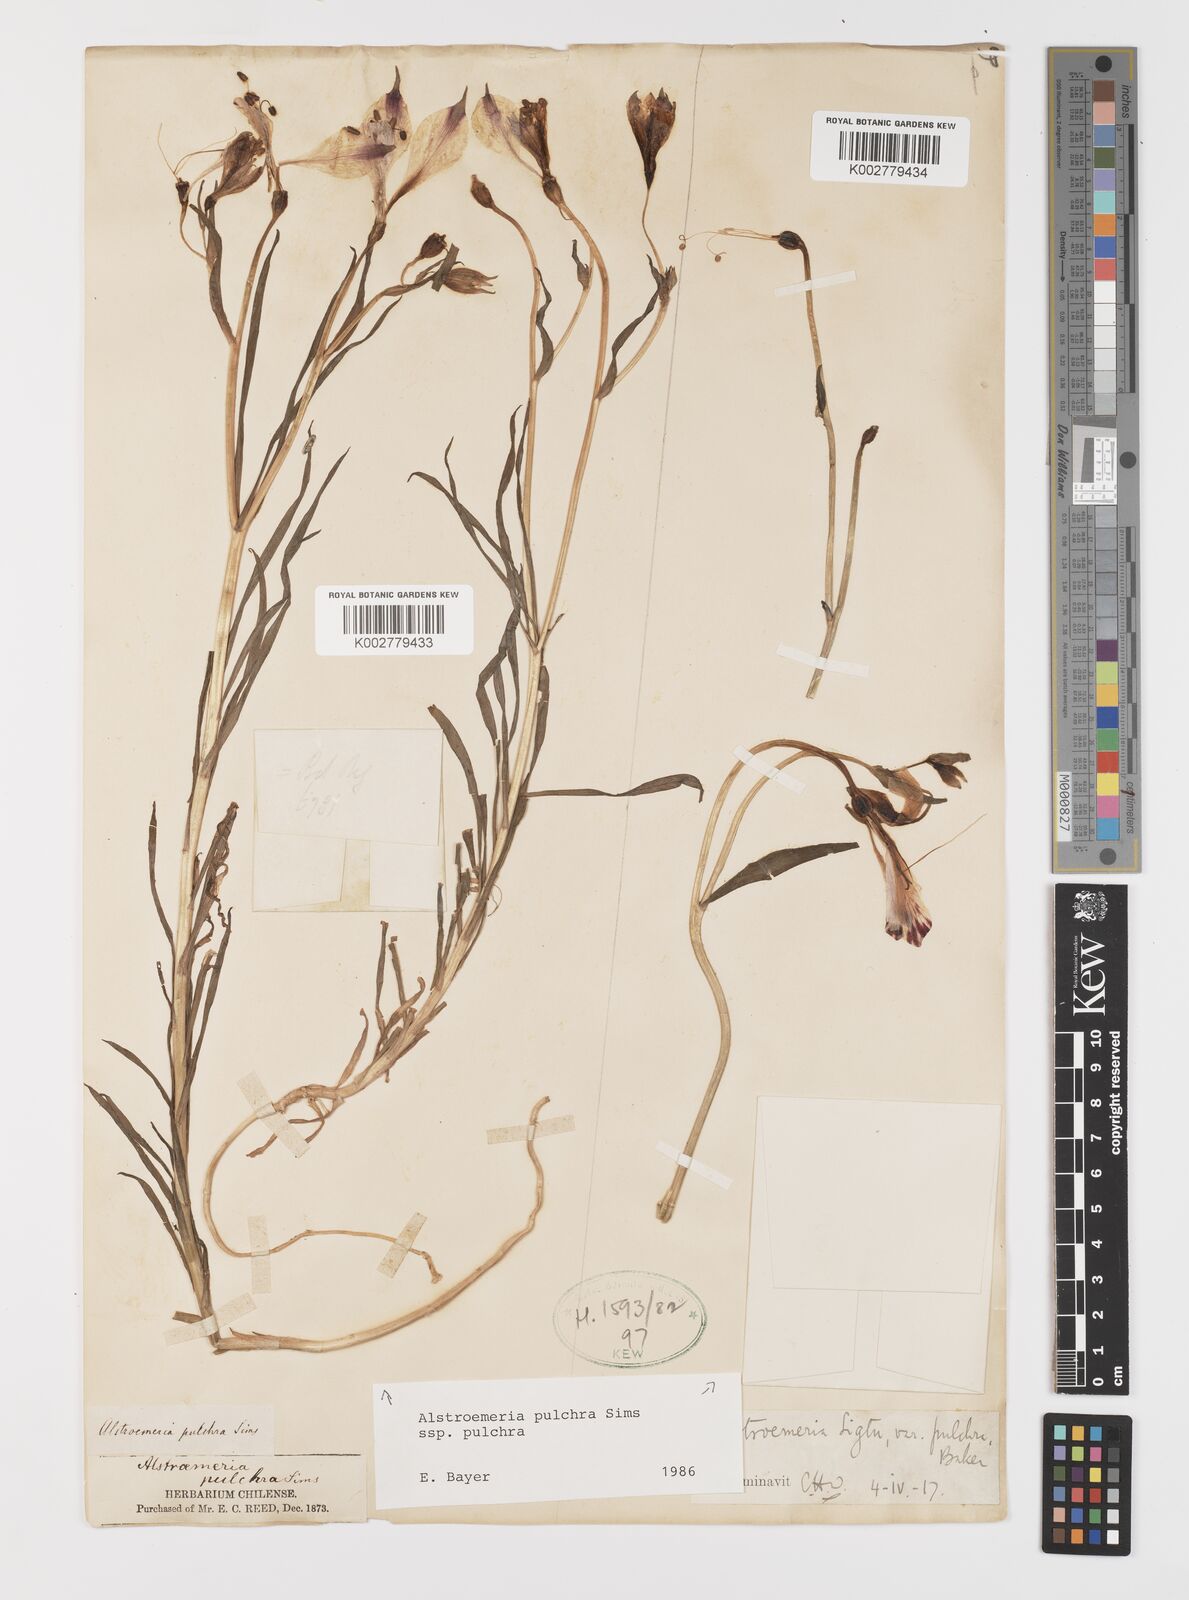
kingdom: Plantae
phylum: Tracheophyta
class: Liliopsida
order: Liliales
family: Alstroemeriaceae
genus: Alstroemeria
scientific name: Alstroemeria pulchra
